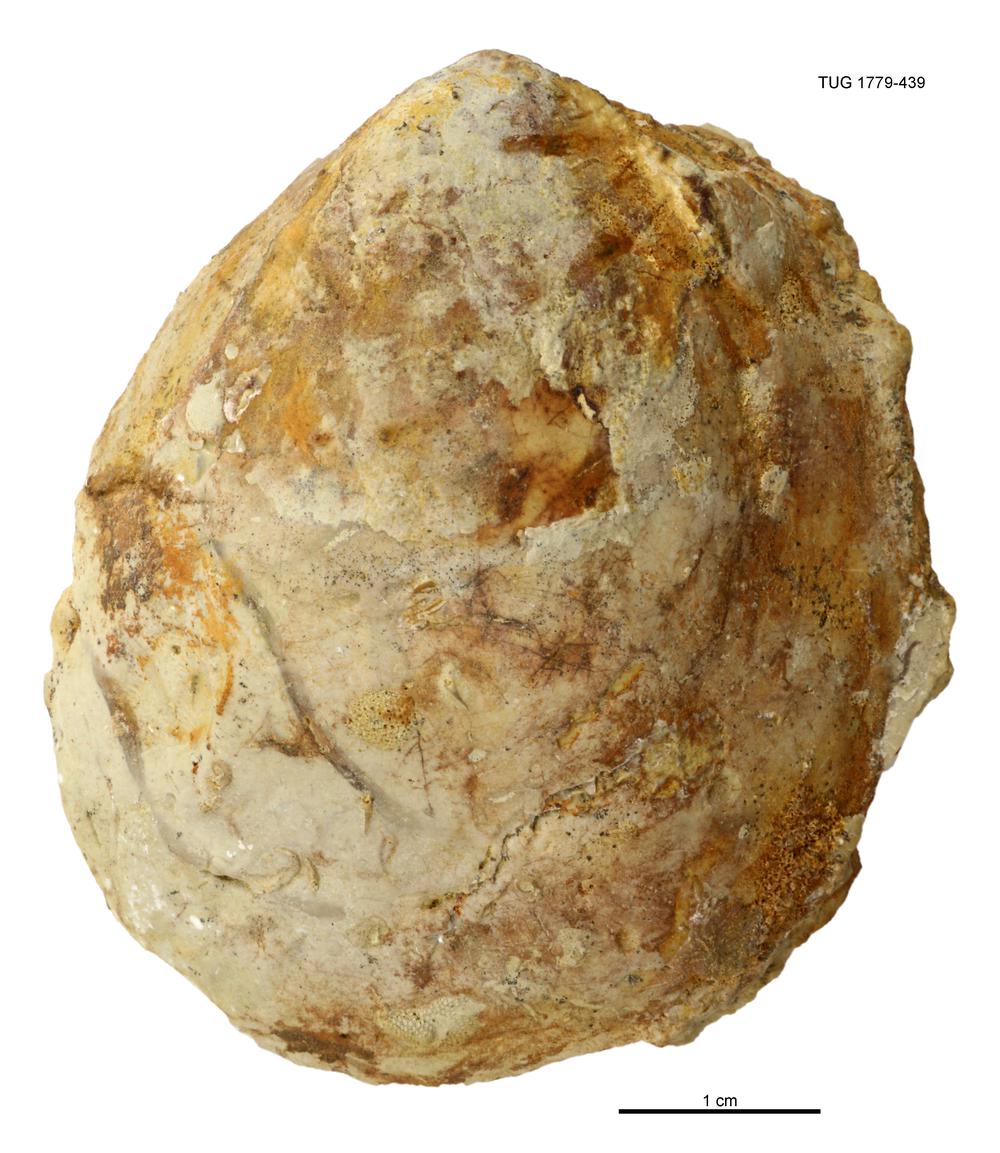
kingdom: Animalia
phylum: Mollusca
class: Bivalvia
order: Cyrtodontida
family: Cyrtodontidae
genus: Cypricardites
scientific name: Cypricardites
